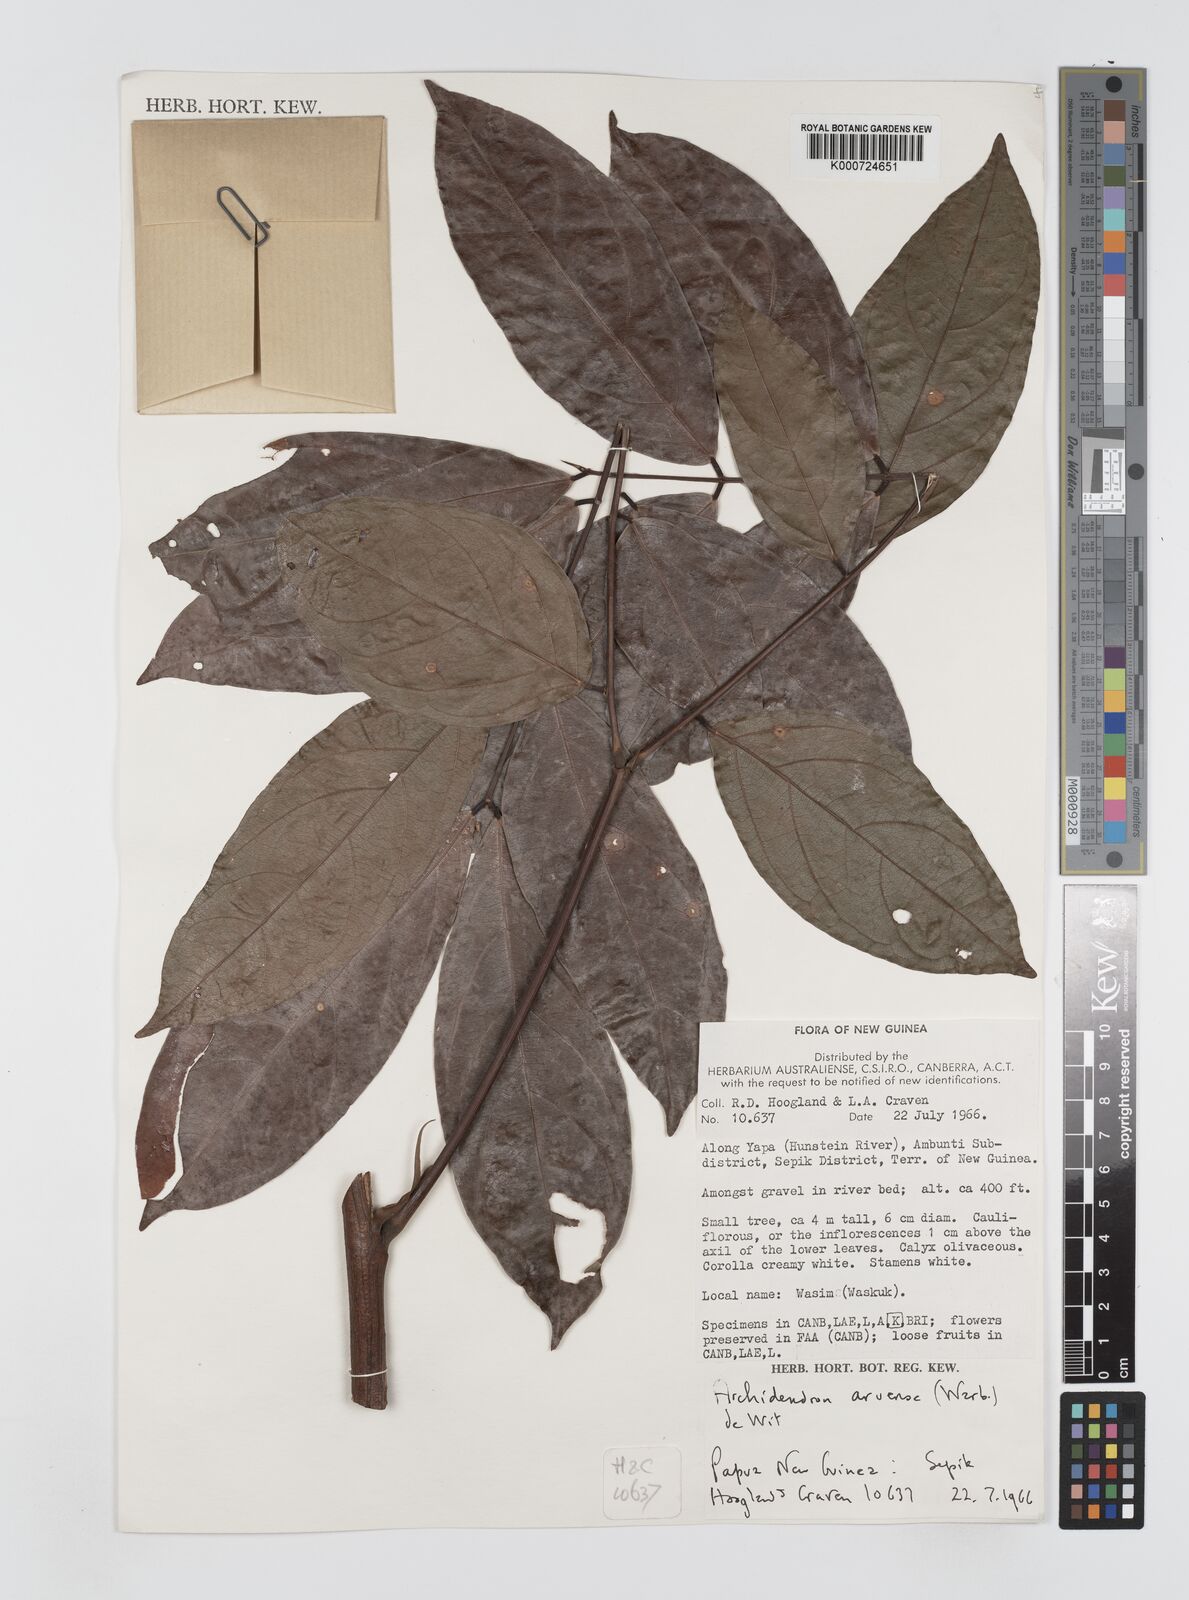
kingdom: Plantae
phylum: Tracheophyta
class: Magnoliopsida
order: Fabales
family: Fabaceae
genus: Archidendron
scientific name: Archidendron aruense
